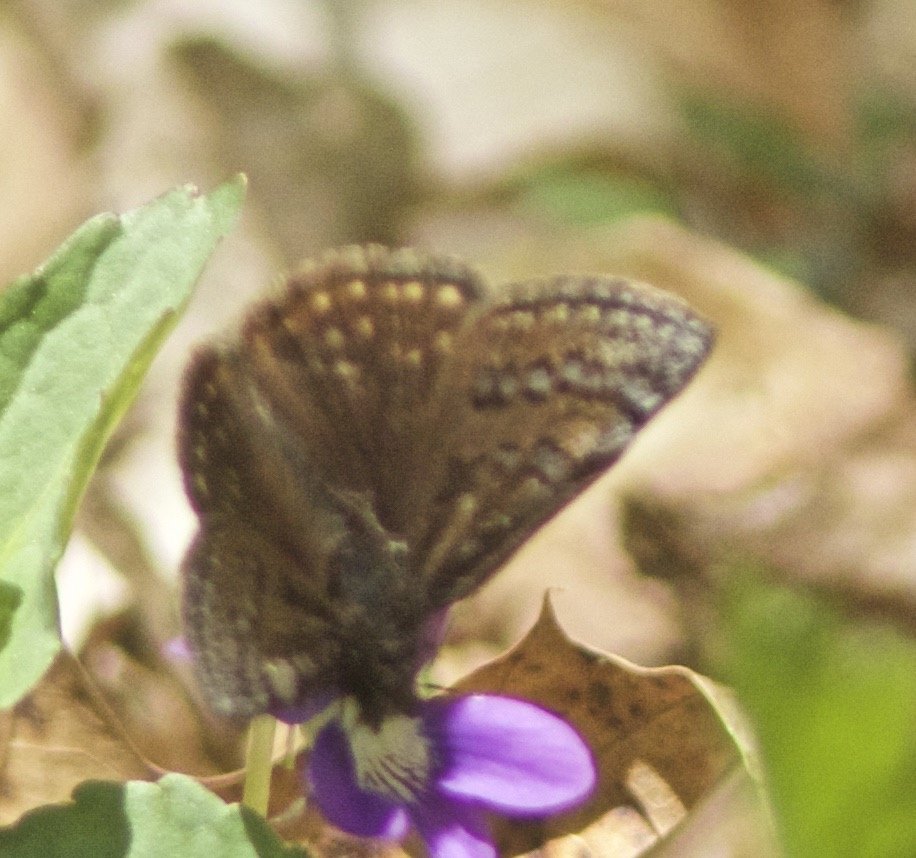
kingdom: Animalia
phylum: Arthropoda
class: Insecta
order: Lepidoptera
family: Hesperiidae
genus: Erynnis
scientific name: Erynnis brizo
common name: Sleepy Duskywing
